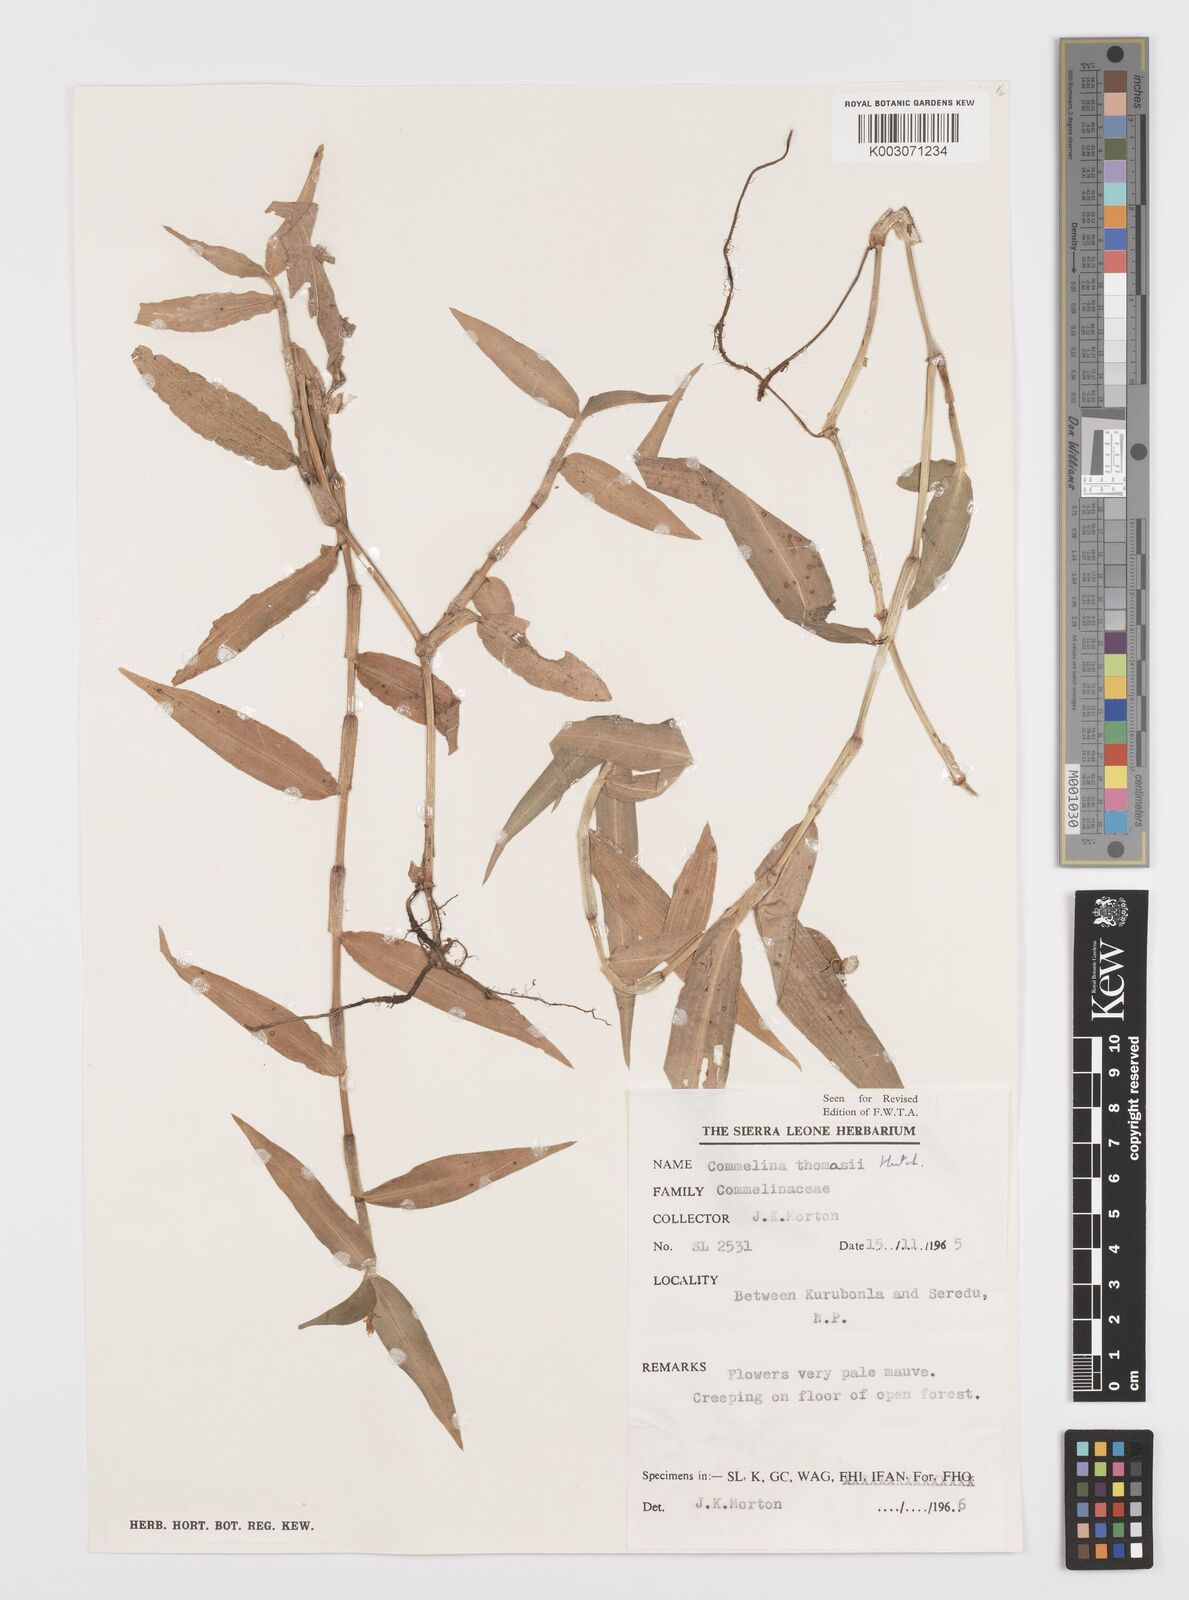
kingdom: Plantae
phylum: Tracheophyta
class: Liliopsida
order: Commelinales
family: Commelinaceae
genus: Commelina
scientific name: Commelina acutispatha
